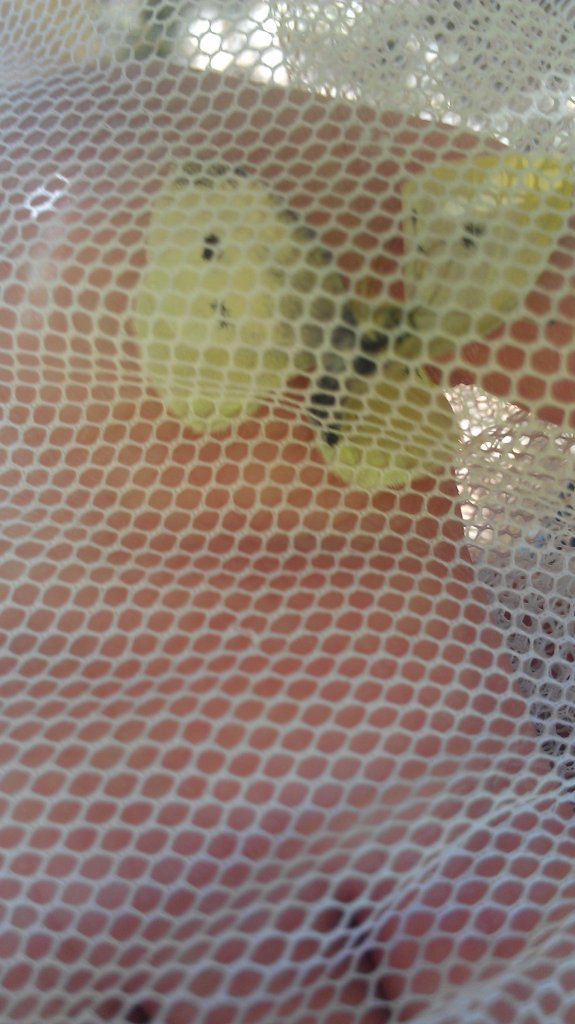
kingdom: Animalia
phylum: Arthropoda
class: Insecta
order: Lepidoptera
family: Pieridae
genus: Pieris
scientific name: Pieris rapae
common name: Cabbage White
